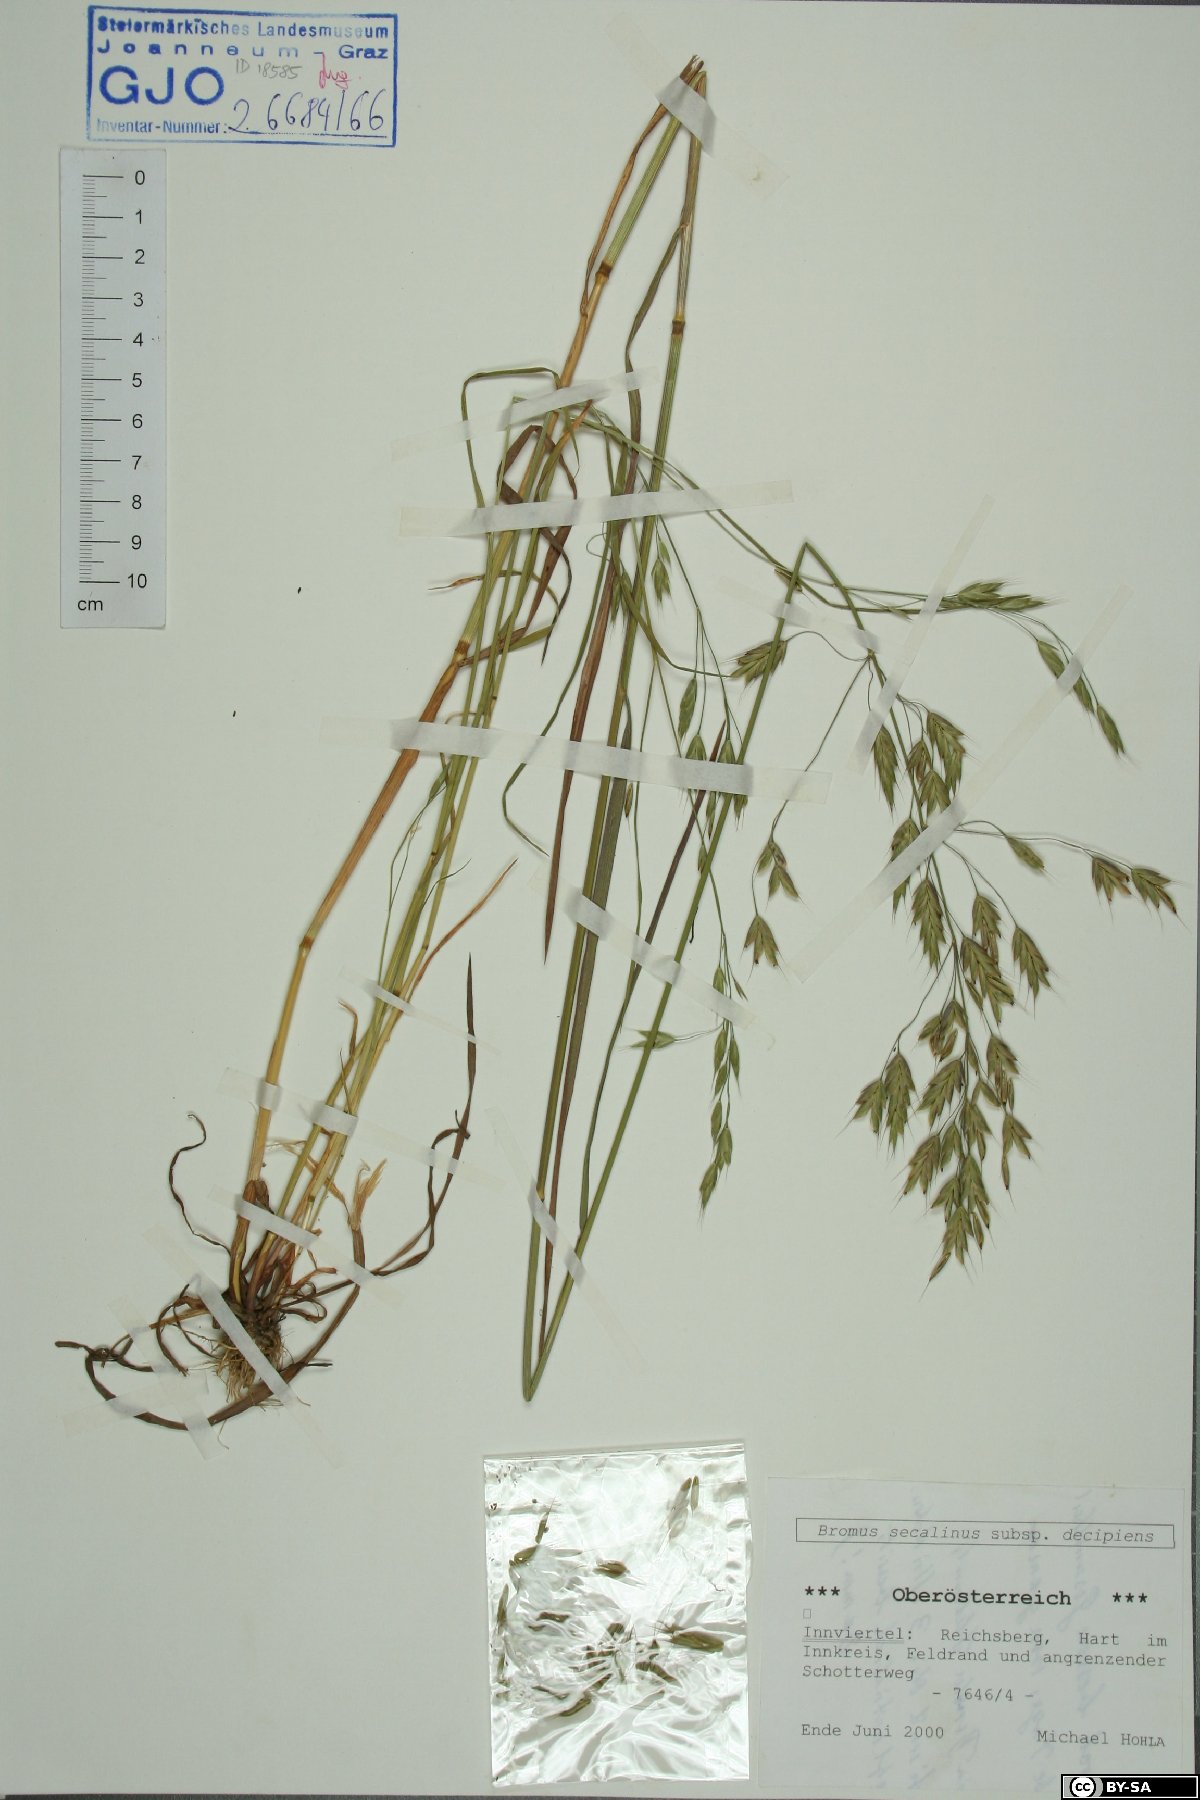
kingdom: Plantae
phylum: Tracheophyta
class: Liliopsida
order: Poales
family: Poaceae
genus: Bromus
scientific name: Bromus commutatus
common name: Meadow brome
